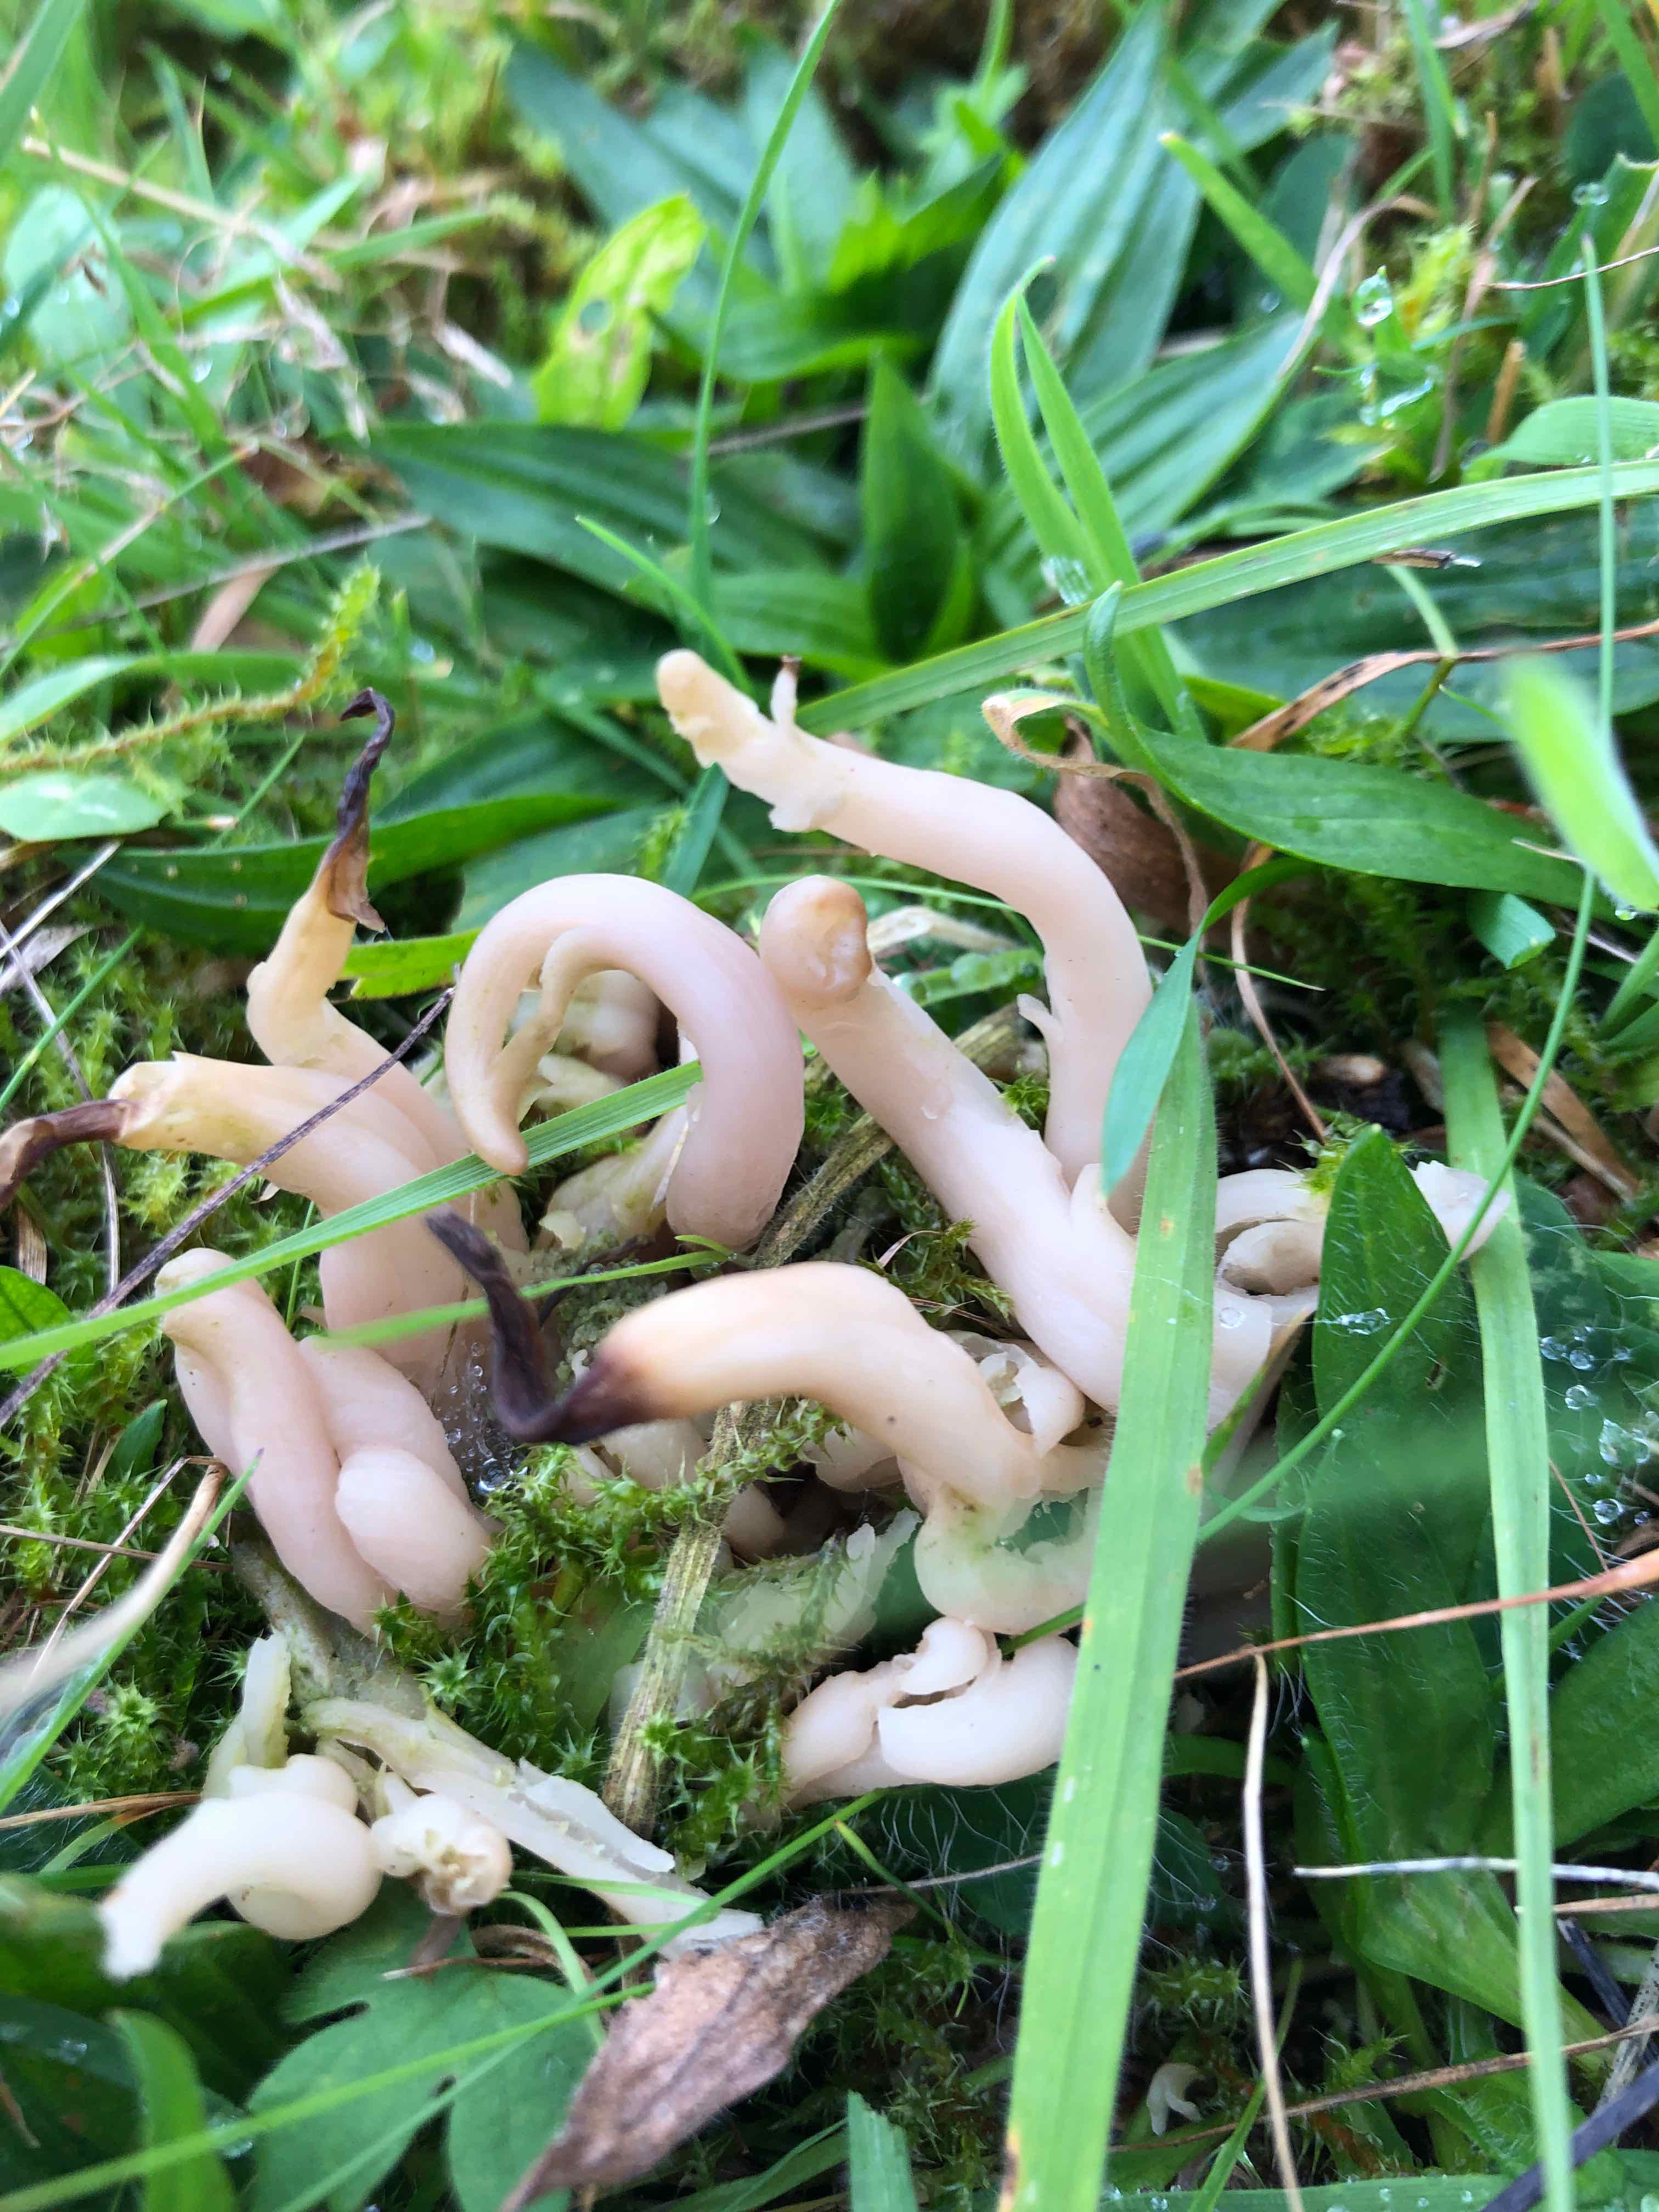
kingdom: Fungi
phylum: Basidiomycota
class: Agaricomycetes
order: Agaricales
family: Clavariaceae
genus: Clavaria
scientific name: Clavaria fumosa
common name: røggrå køllesvamp
